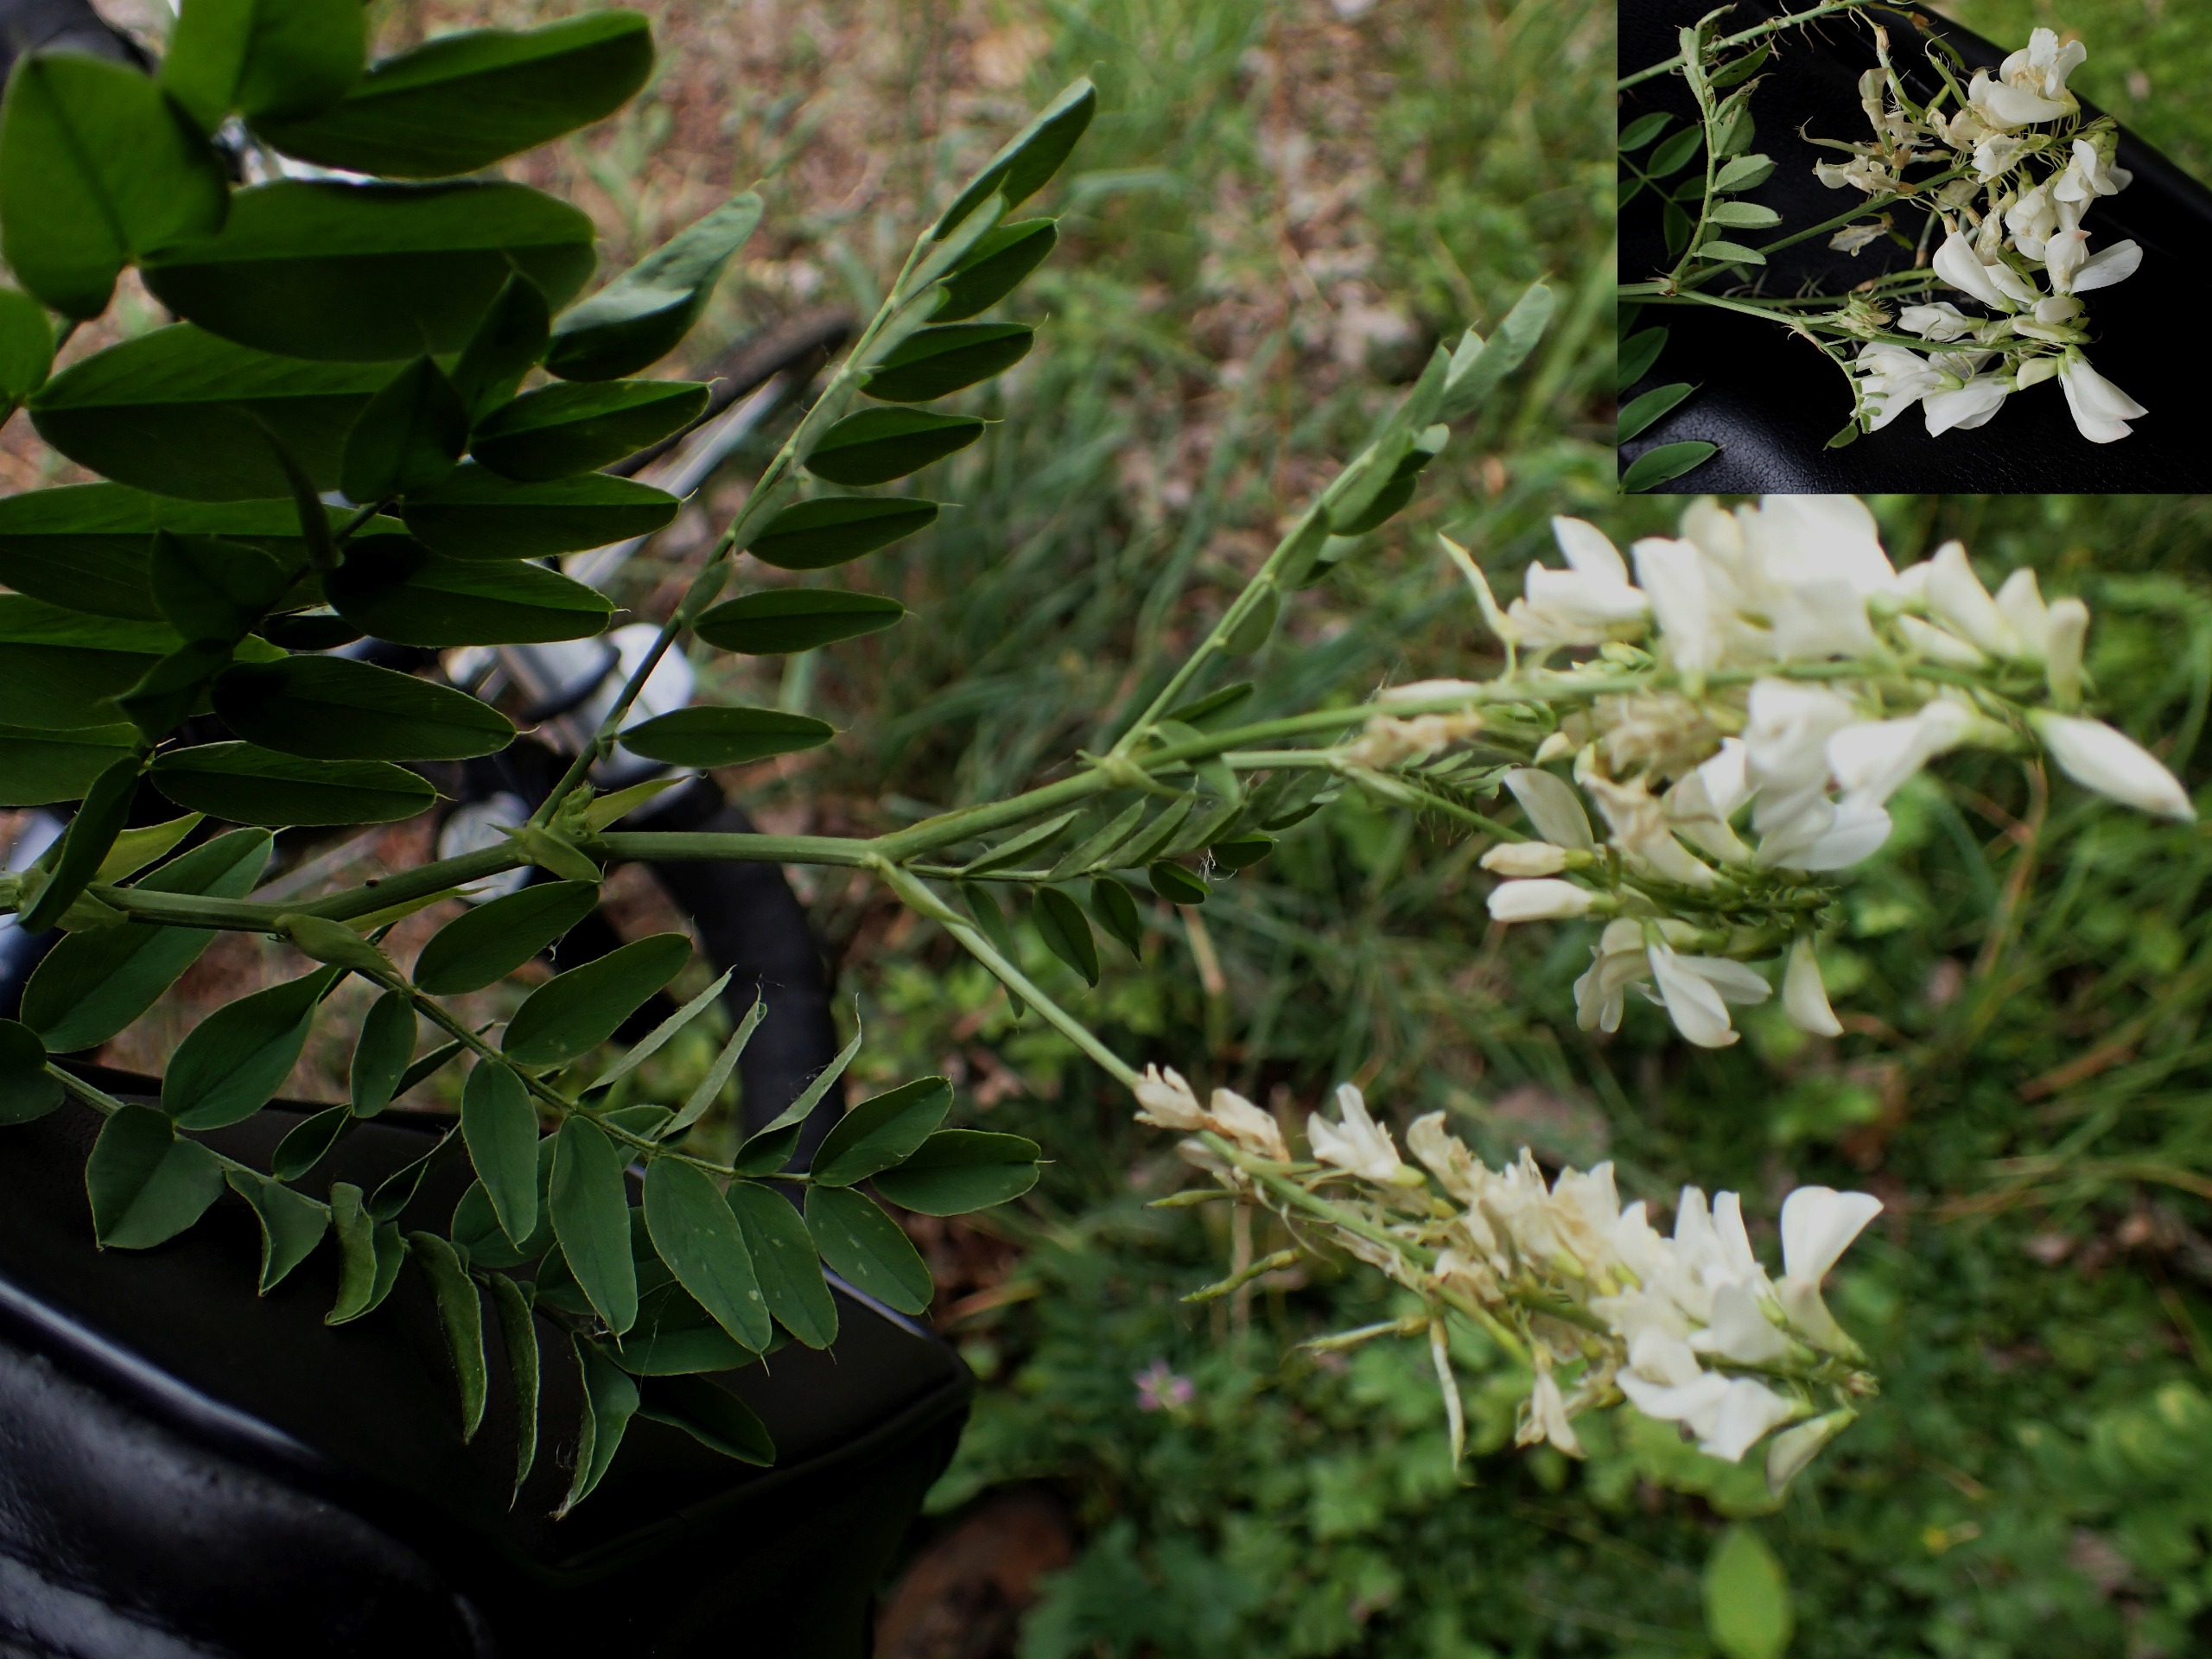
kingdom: Plantae
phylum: Tracheophyta
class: Magnoliopsida
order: Fabales
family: Fabaceae
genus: Galega
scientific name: Galega officinalis
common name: Læge-stregbælg
